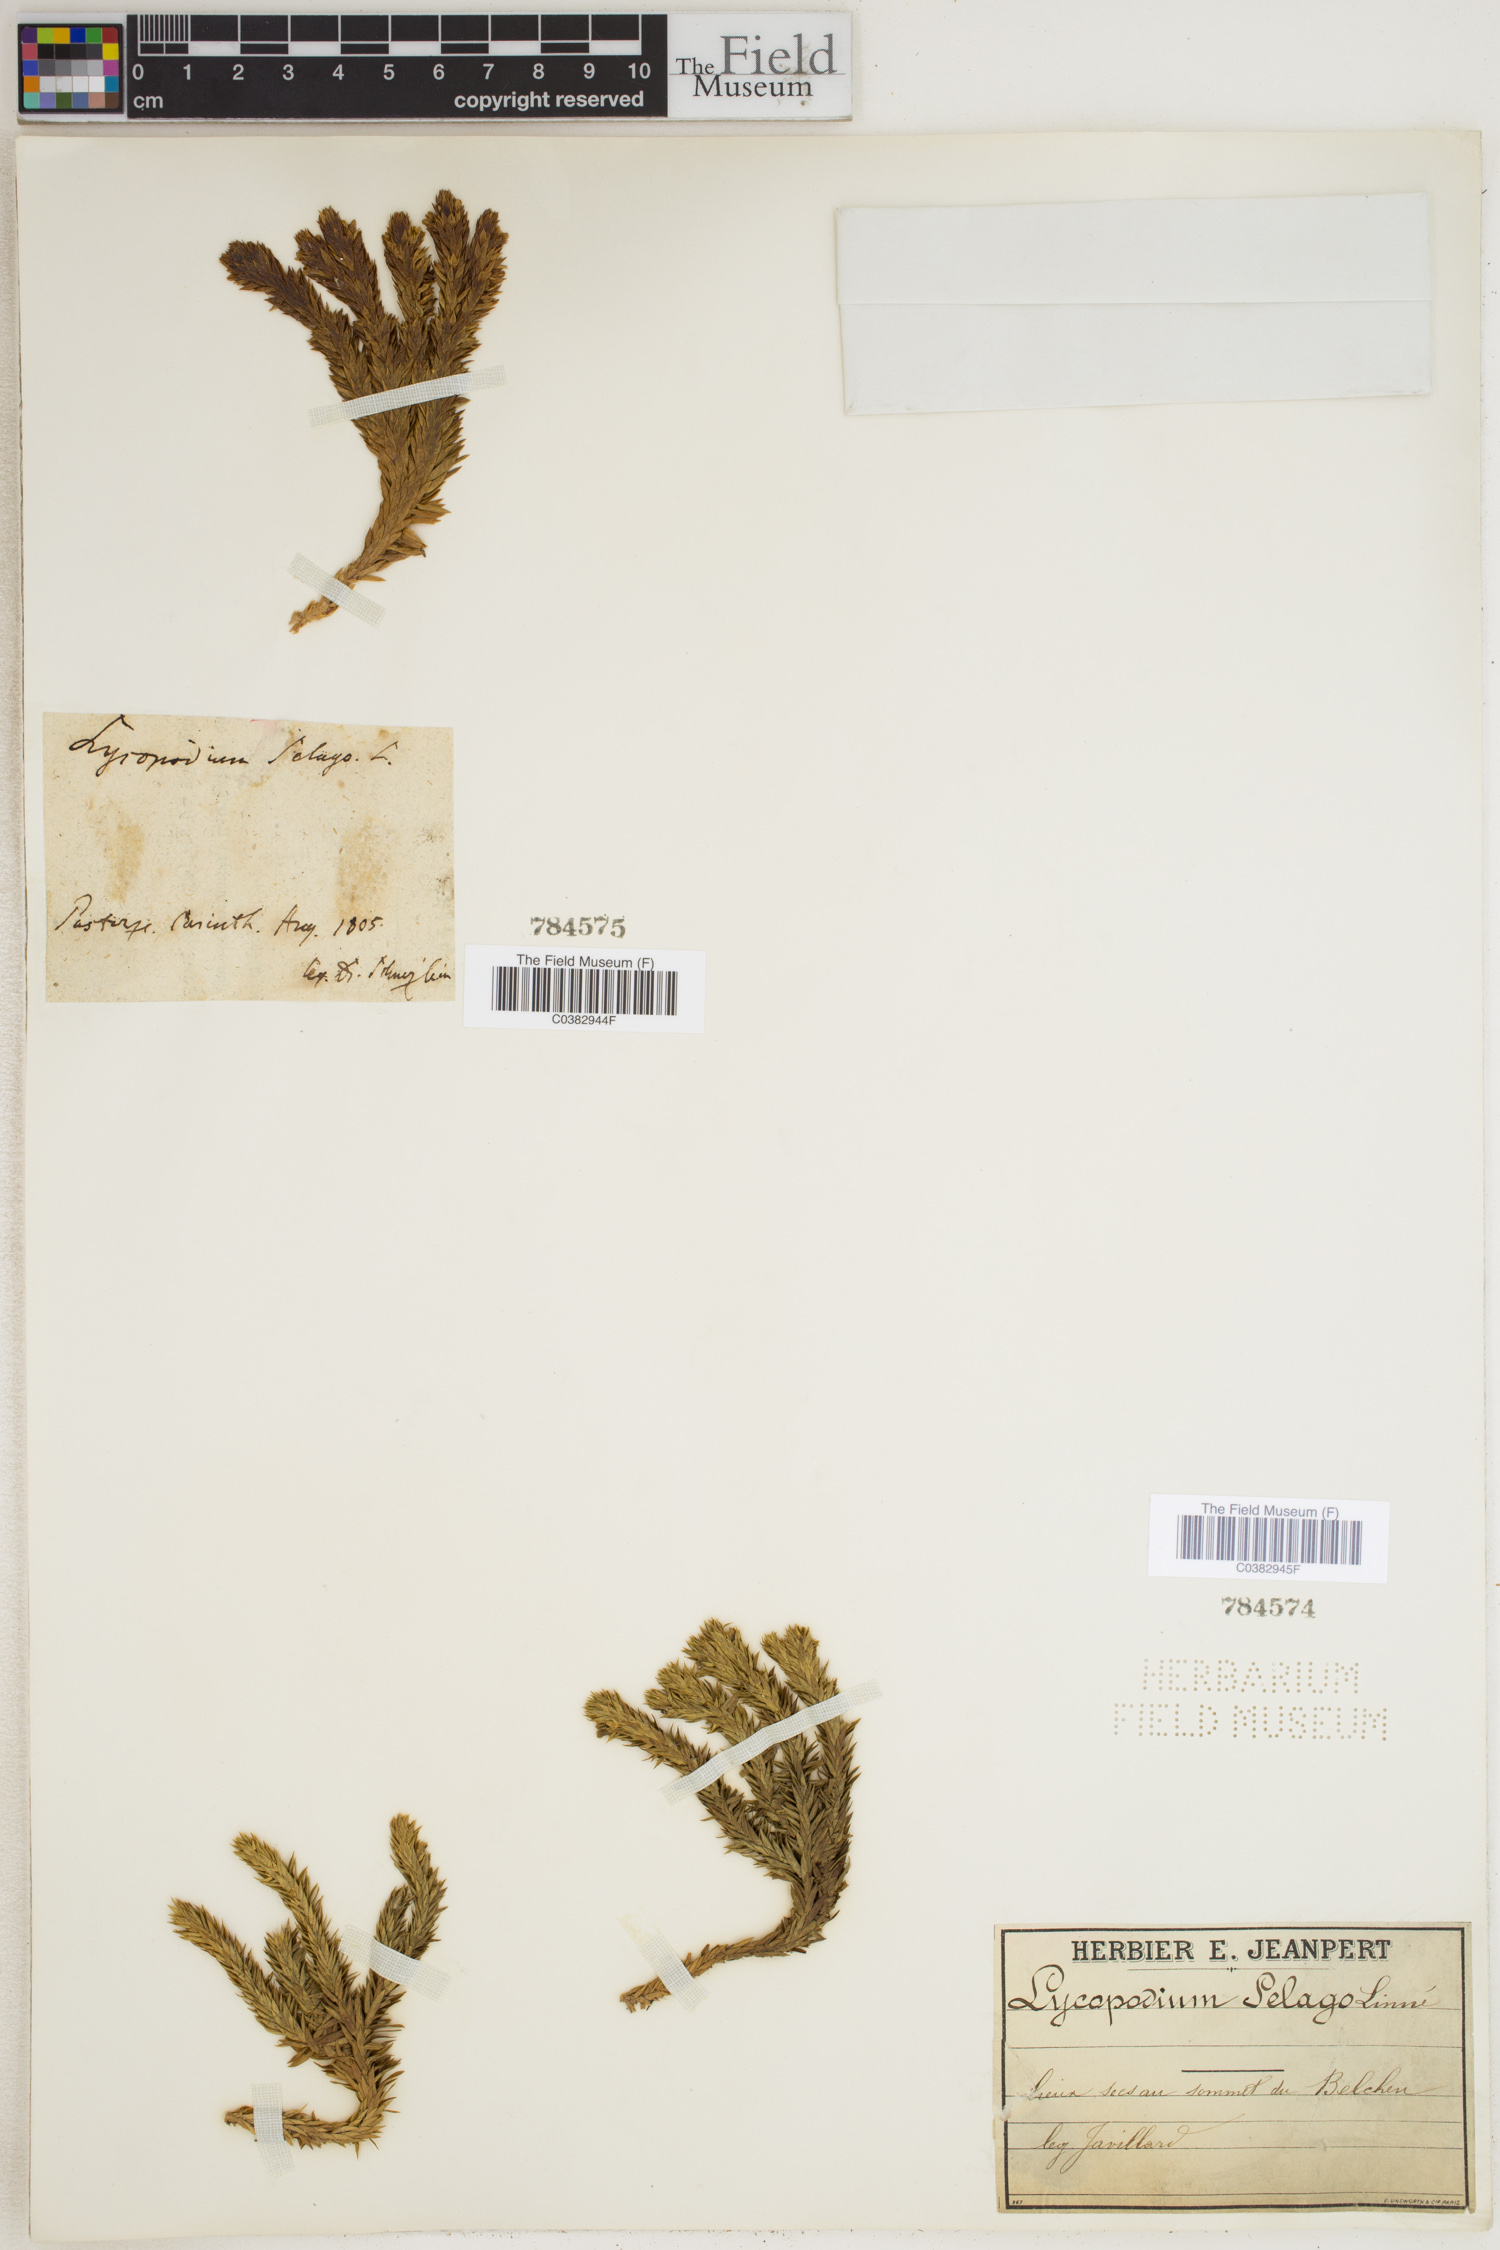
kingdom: Plantae
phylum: Tracheophyta
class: Lycopodiopsida
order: Lycopodiales
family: Lycopodiaceae
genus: Huperzia
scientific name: Huperzia selago
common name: Northern firmoss
